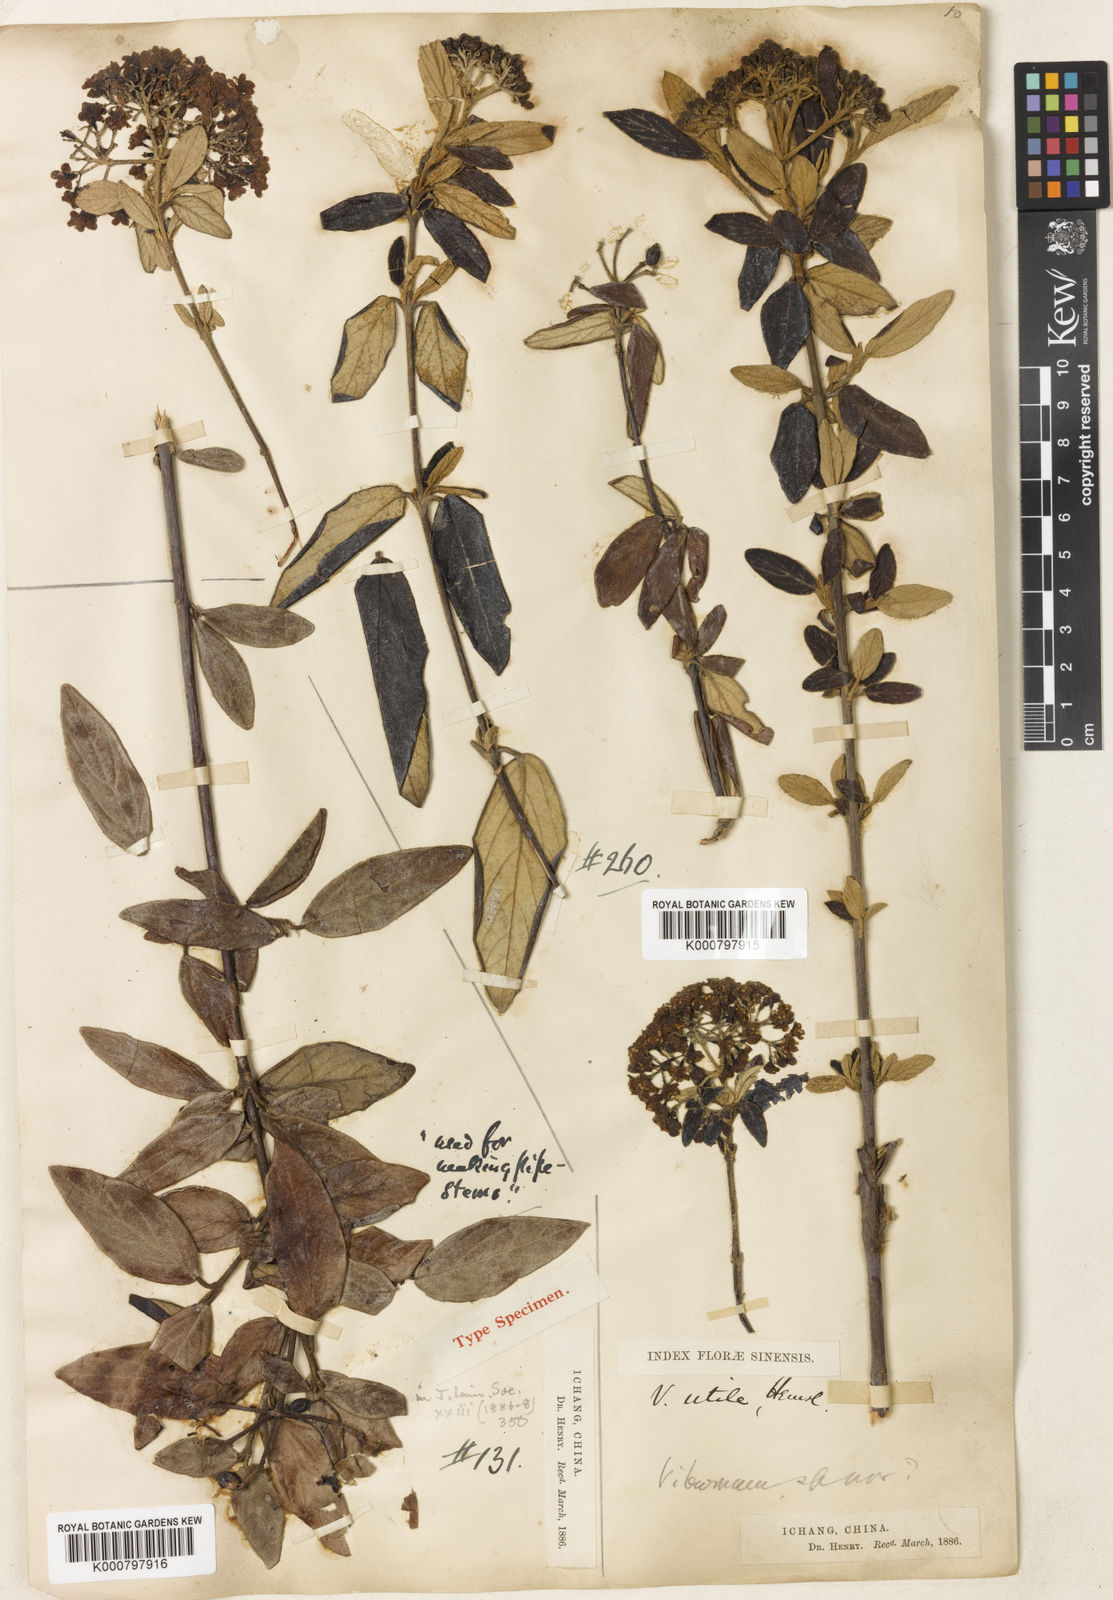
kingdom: Plantae
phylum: Tracheophyta
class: Magnoliopsida
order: Dipsacales
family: Viburnaceae
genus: Viburnum
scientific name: Viburnum utile
